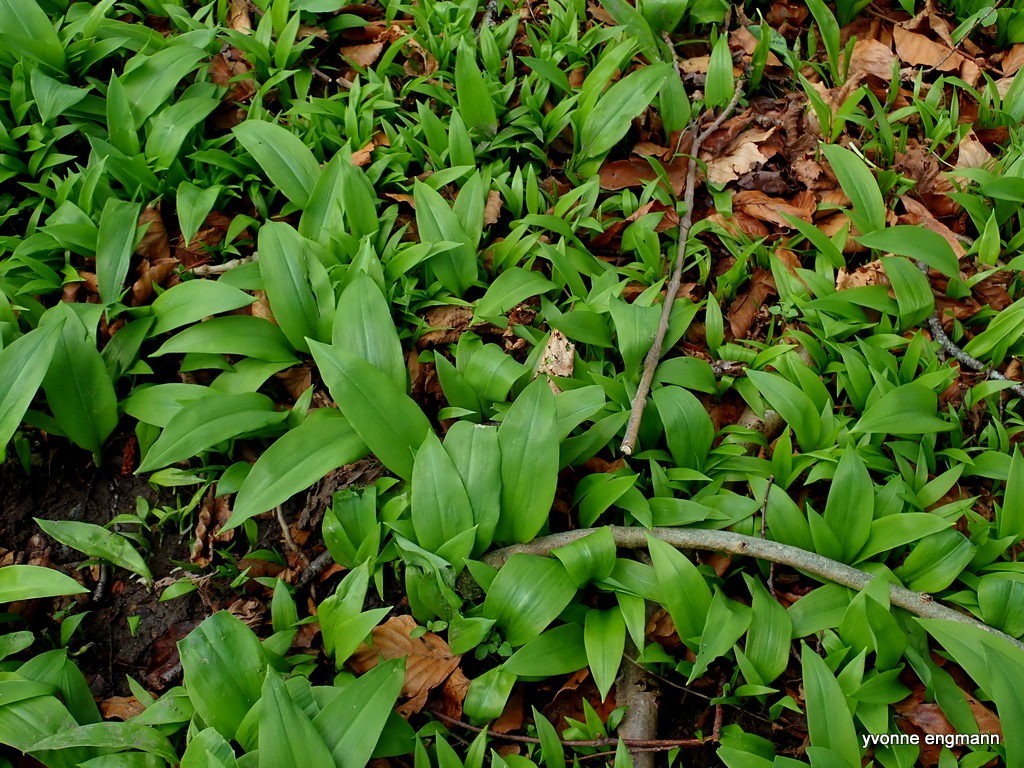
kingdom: Plantae
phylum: Tracheophyta
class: Liliopsida
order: Asparagales
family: Amaryllidaceae
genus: Allium
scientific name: Allium ursinum
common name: Rams-løg
